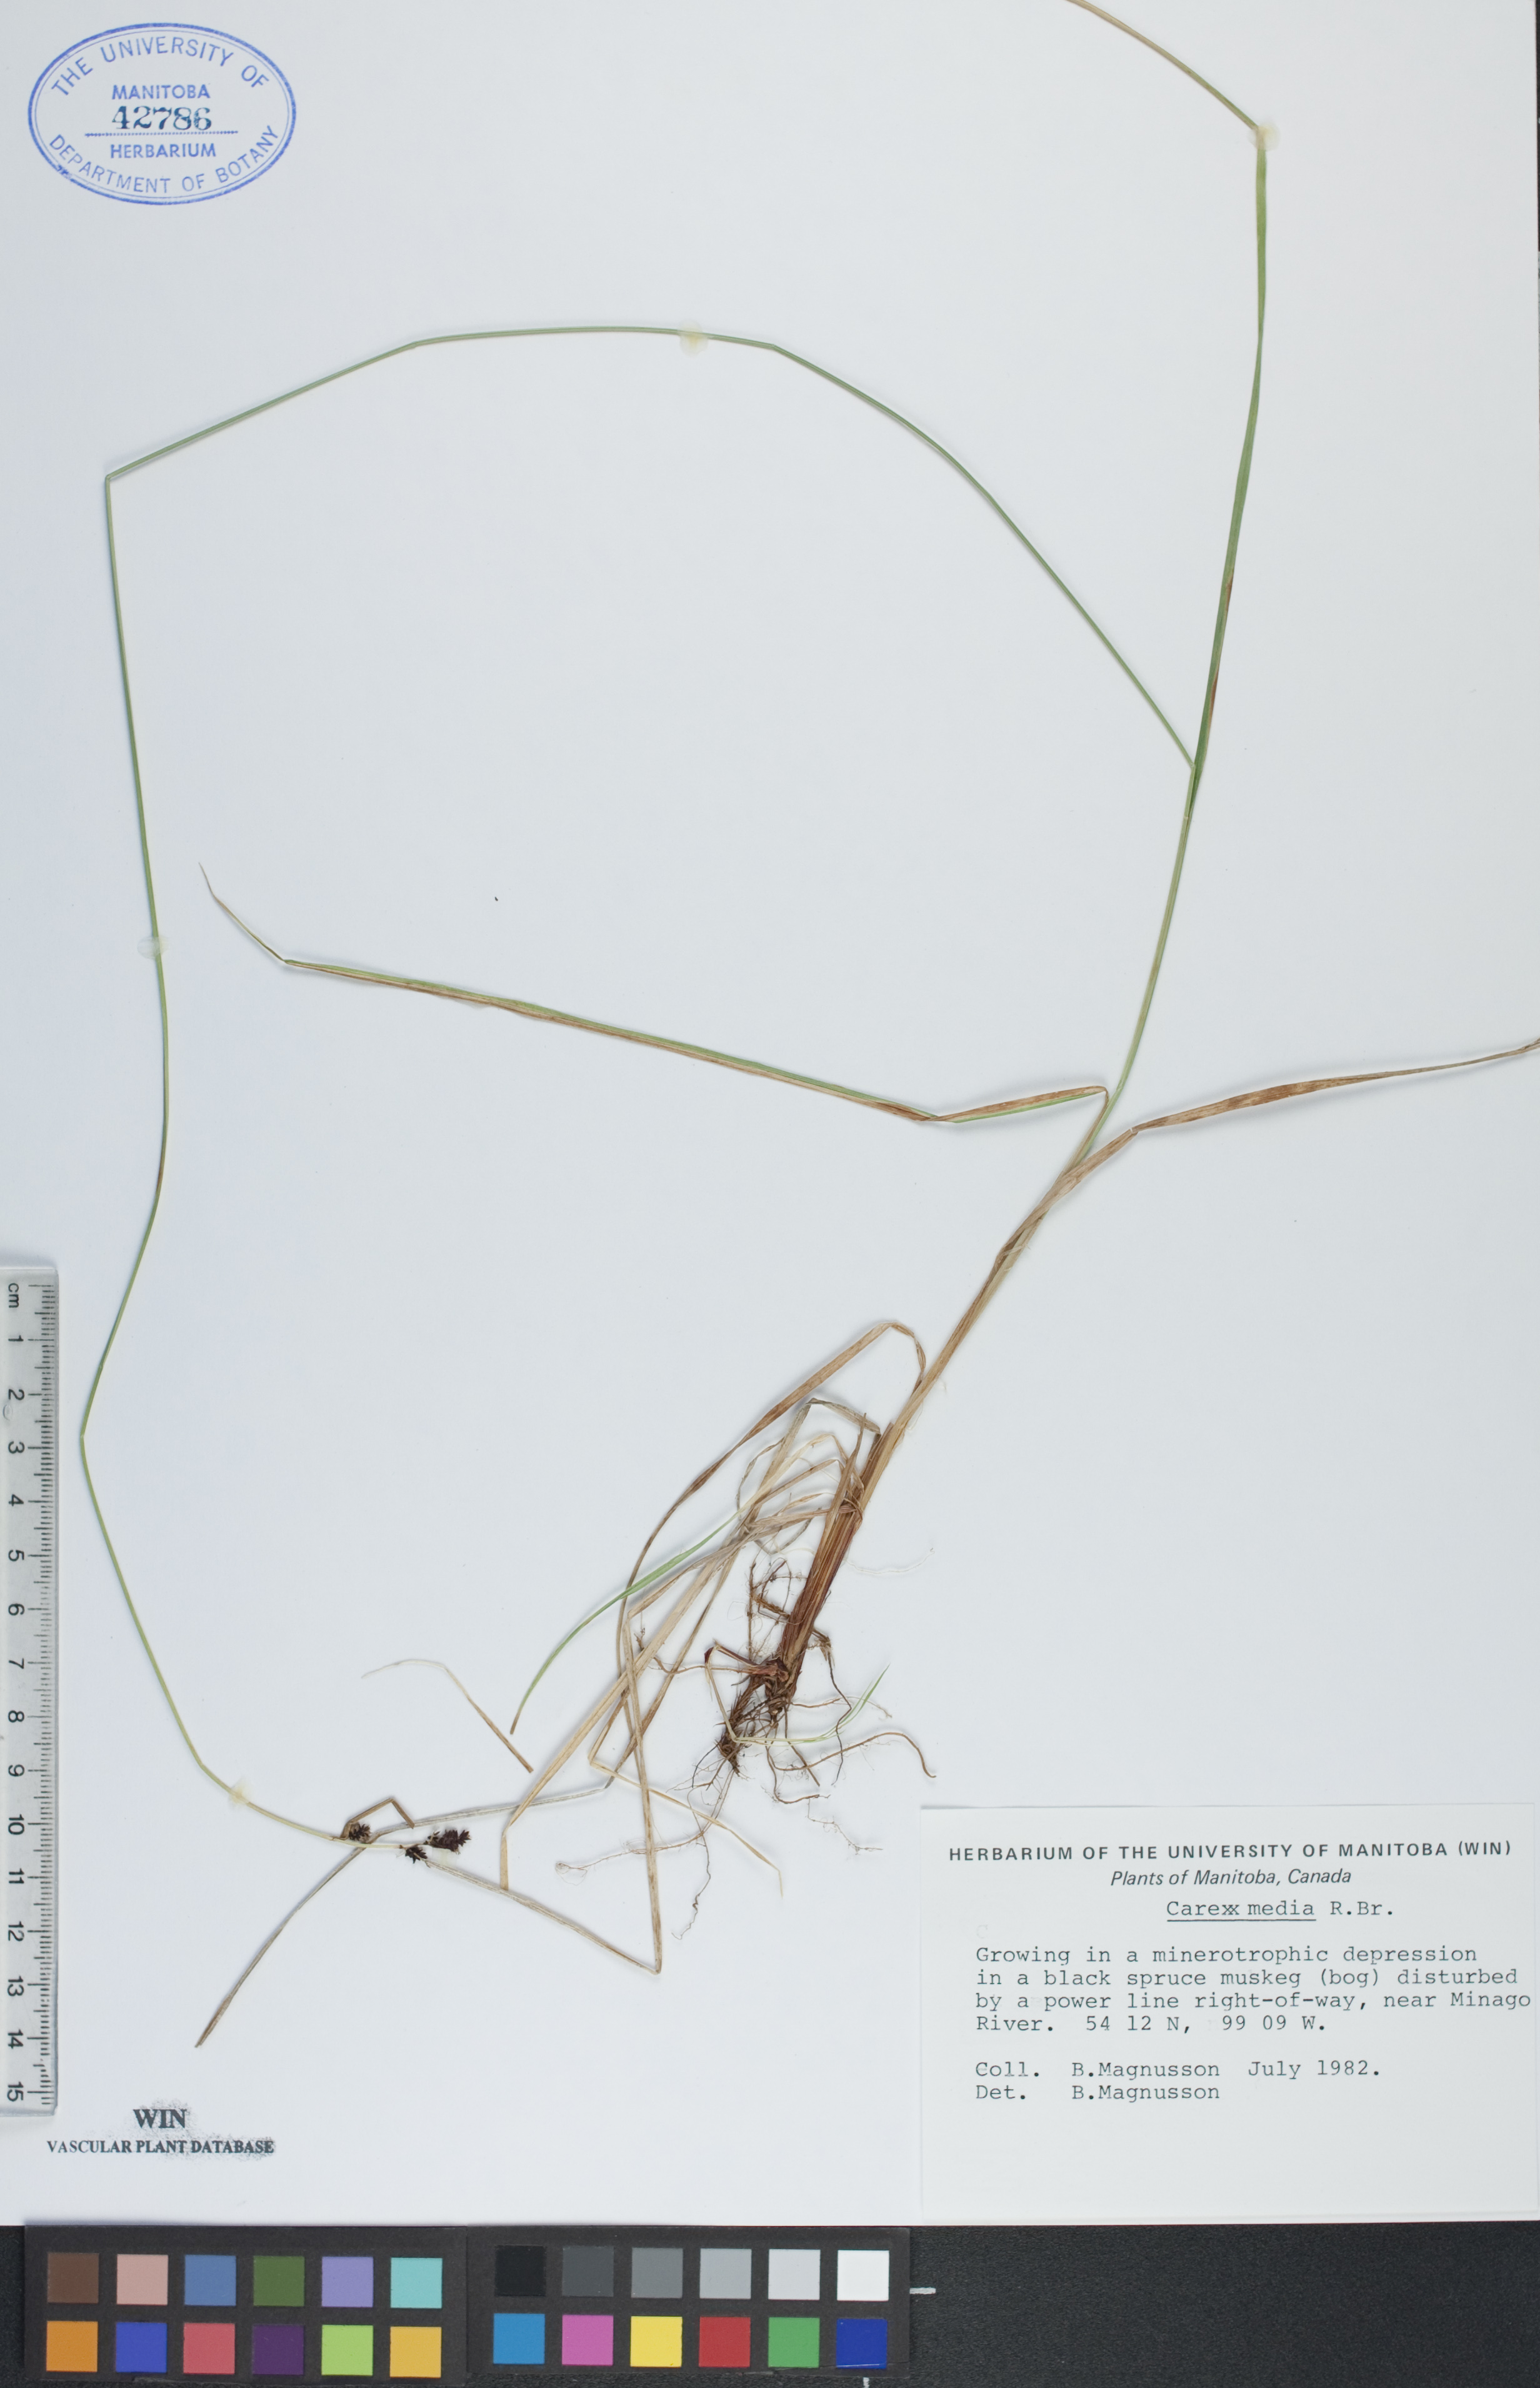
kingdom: Plantae
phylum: Tracheophyta
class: Liliopsida
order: Poales
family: Cyperaceae
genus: Carex
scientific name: Carex media
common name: Alpine sedge
